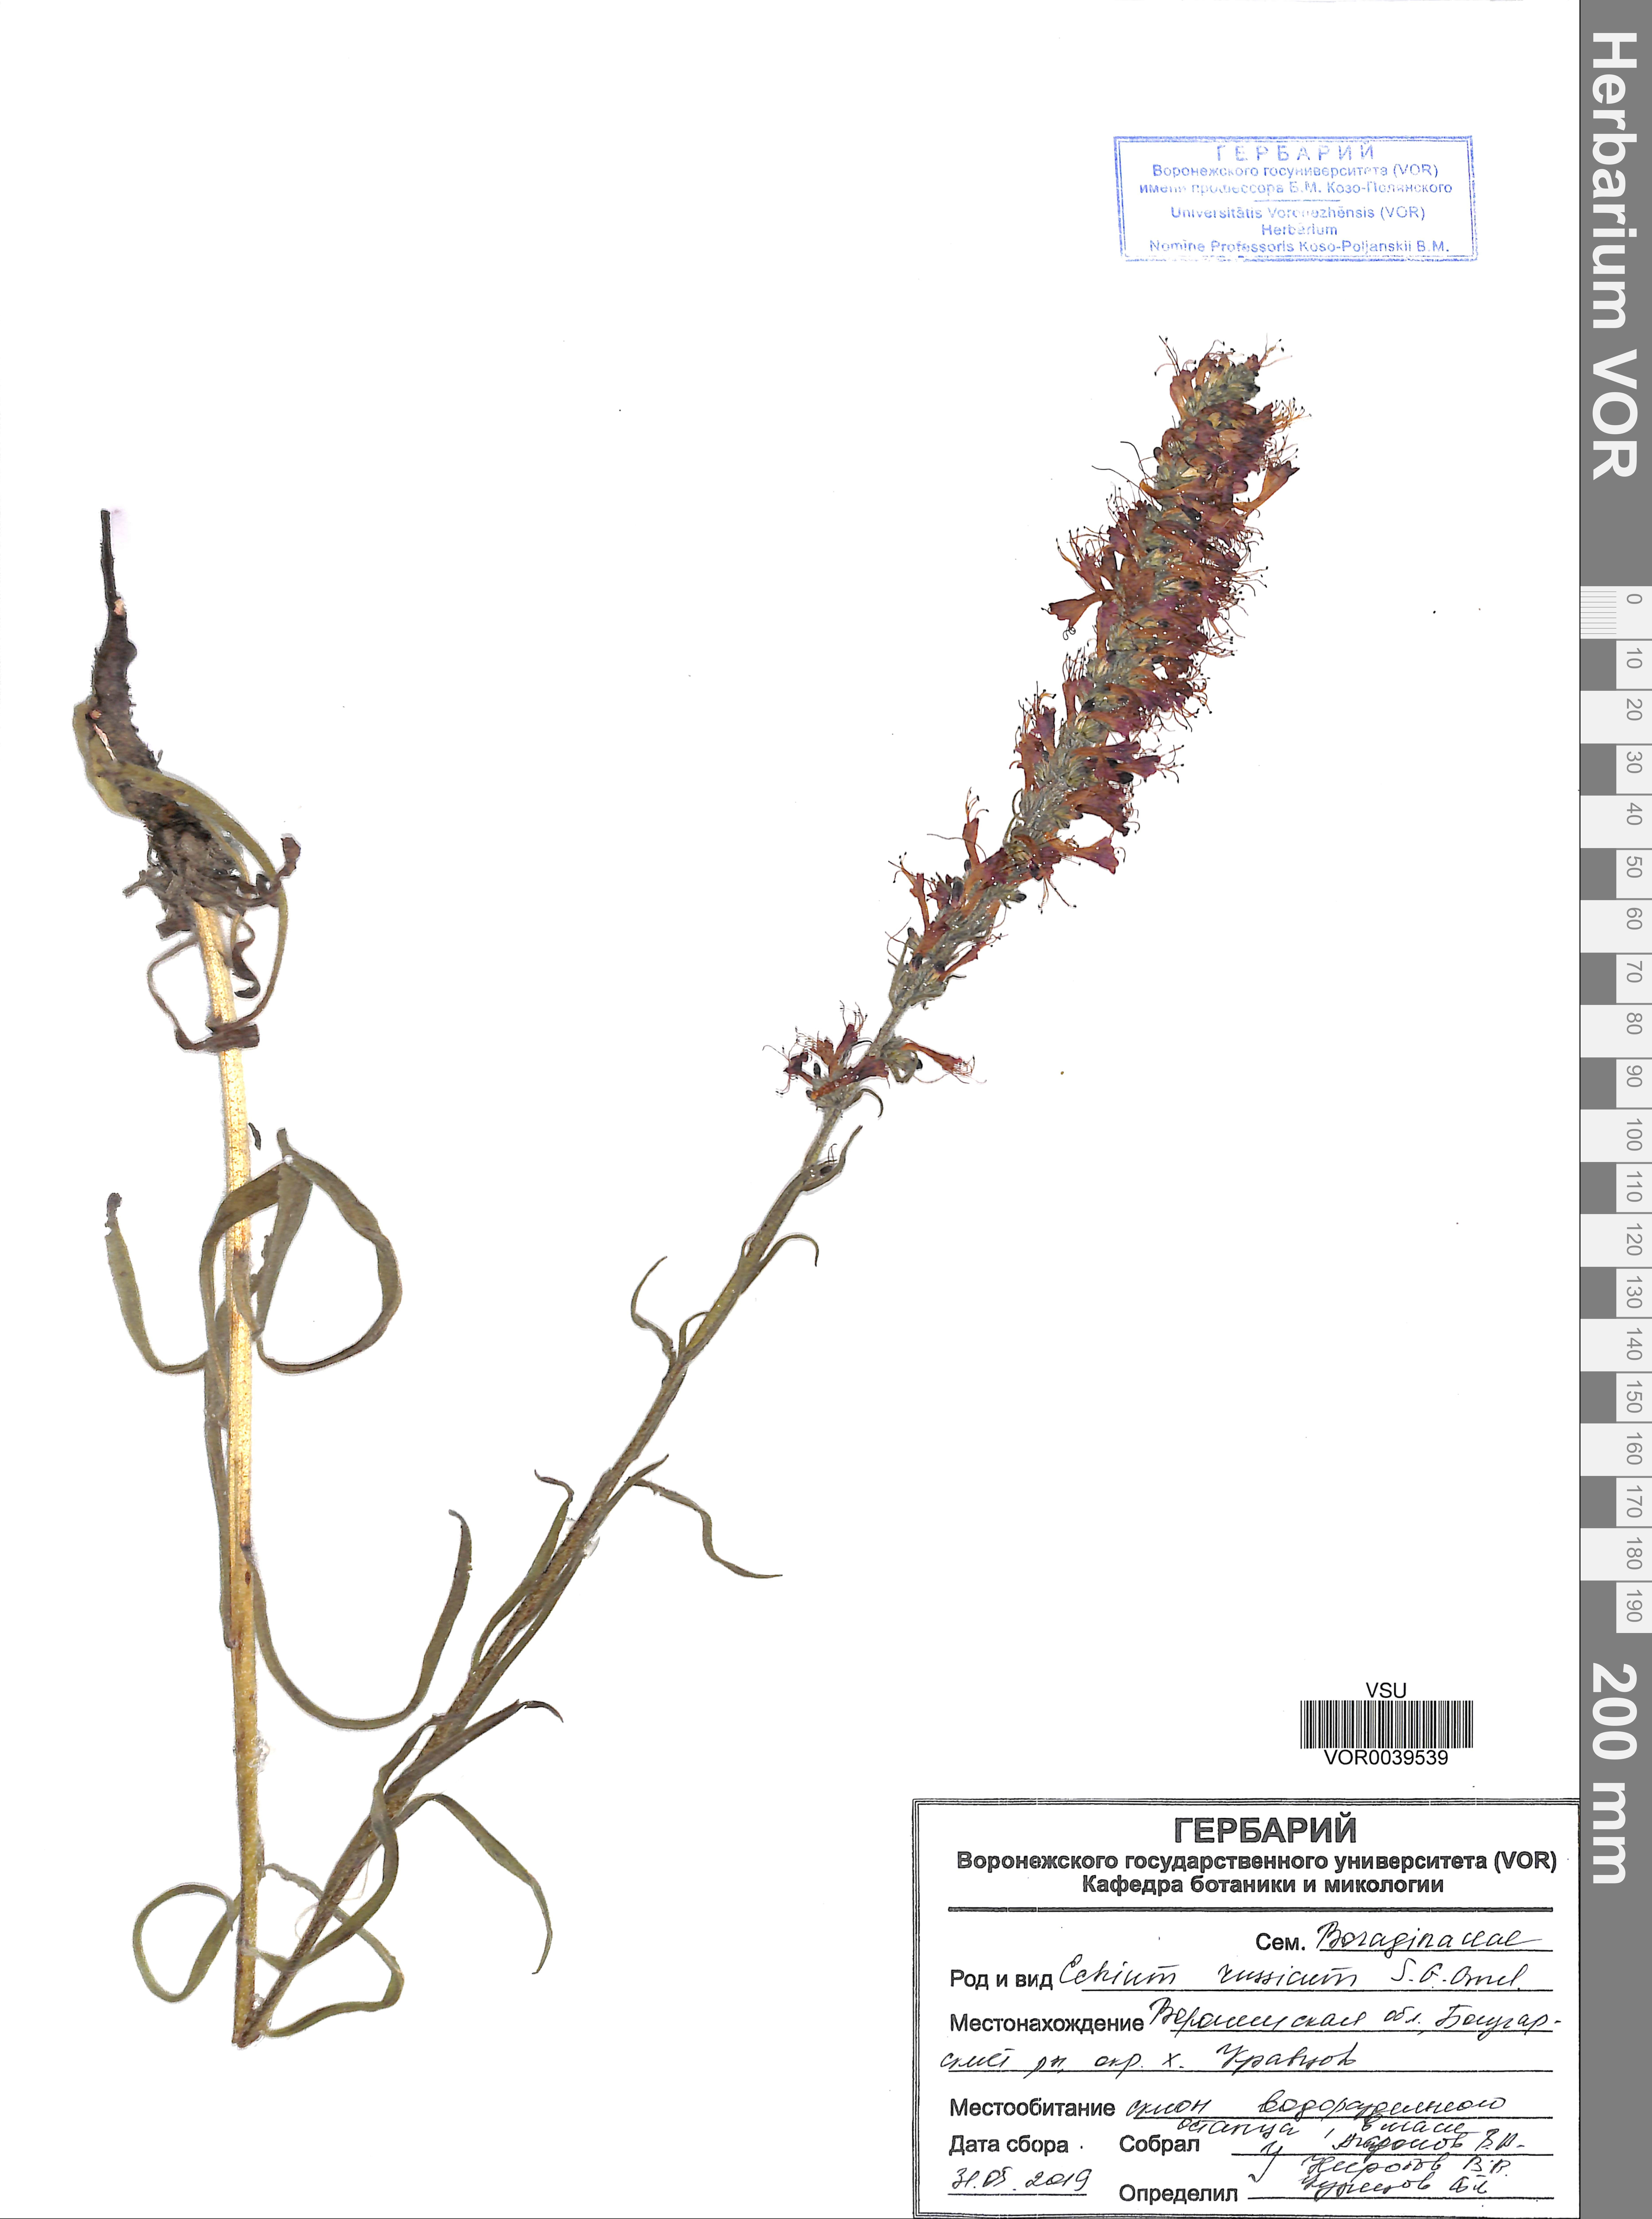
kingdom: Plantae
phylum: Tracheophyta
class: Magnoliopsida
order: Boraginales
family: Boraginaceae
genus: Pontechium
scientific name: Pontechium maculatum
